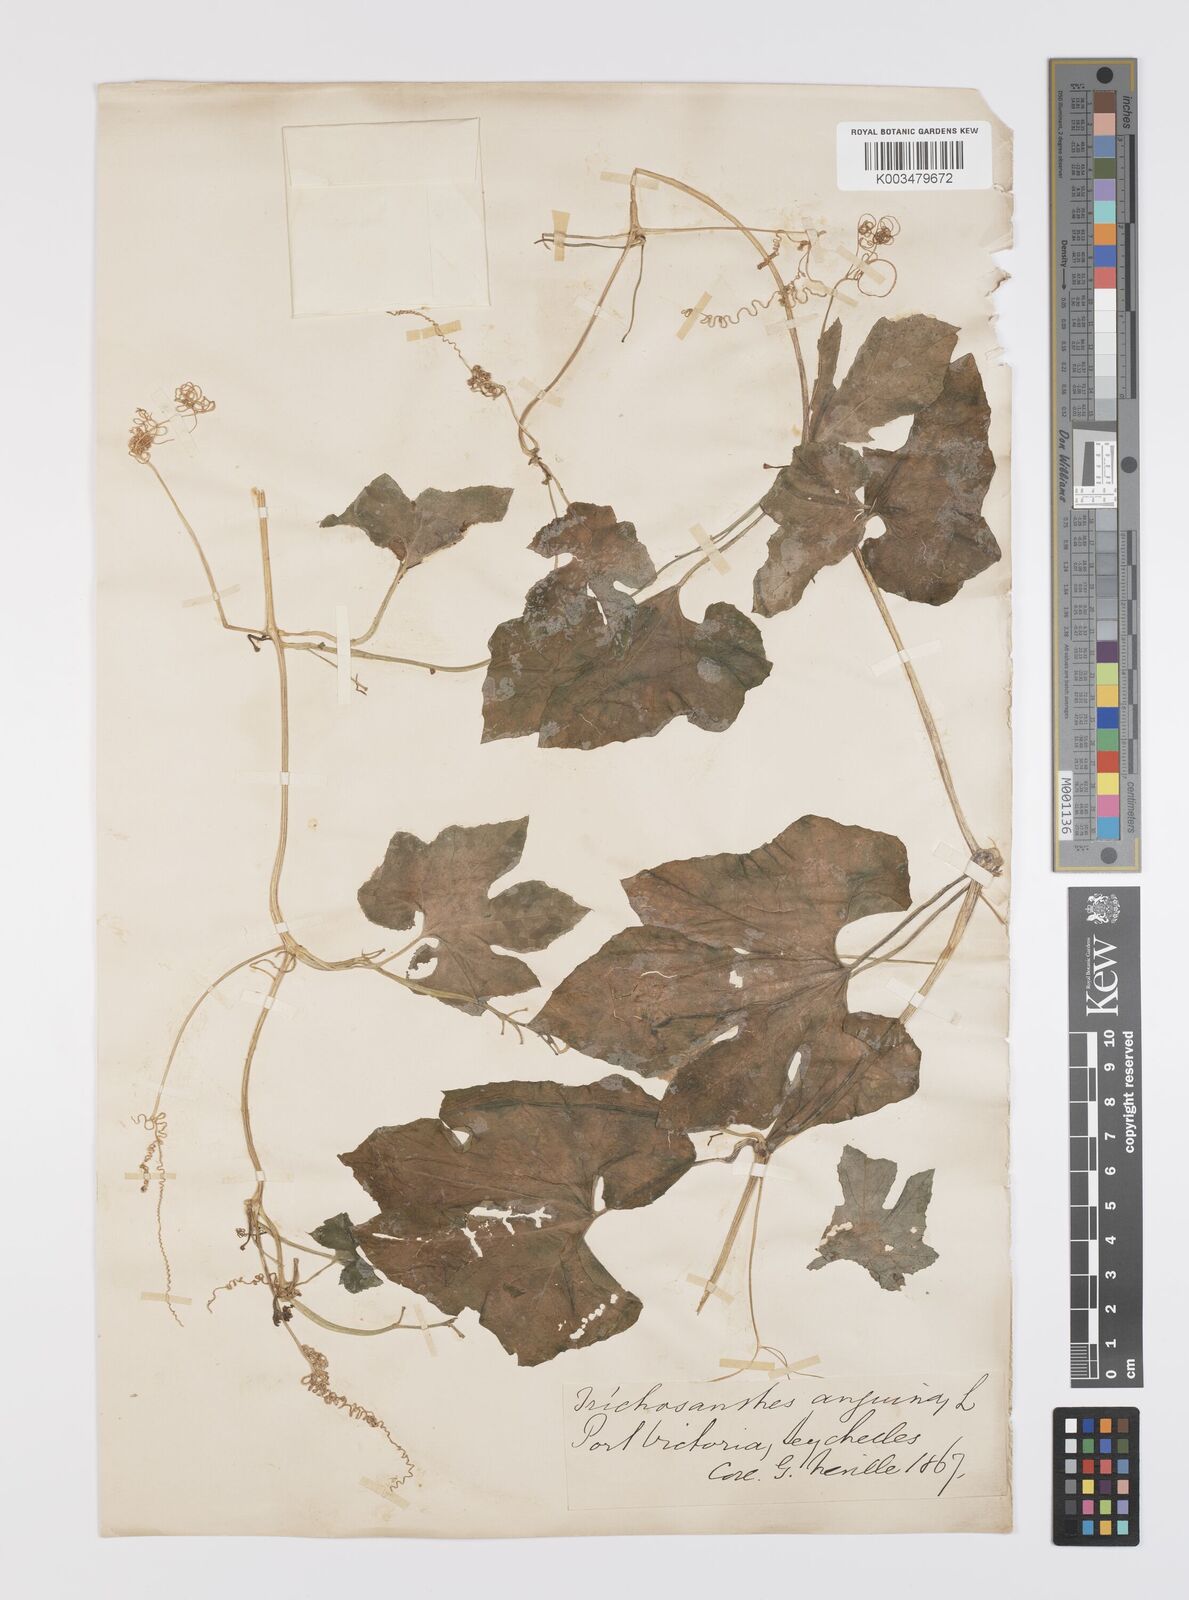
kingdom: Plantae
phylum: Tracheophyta
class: Magnoliopsida
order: Cucurbitales
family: Cucurbitaceae
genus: Trichosanthes
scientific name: Trichosanthes cucumerina
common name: Snakegourd
